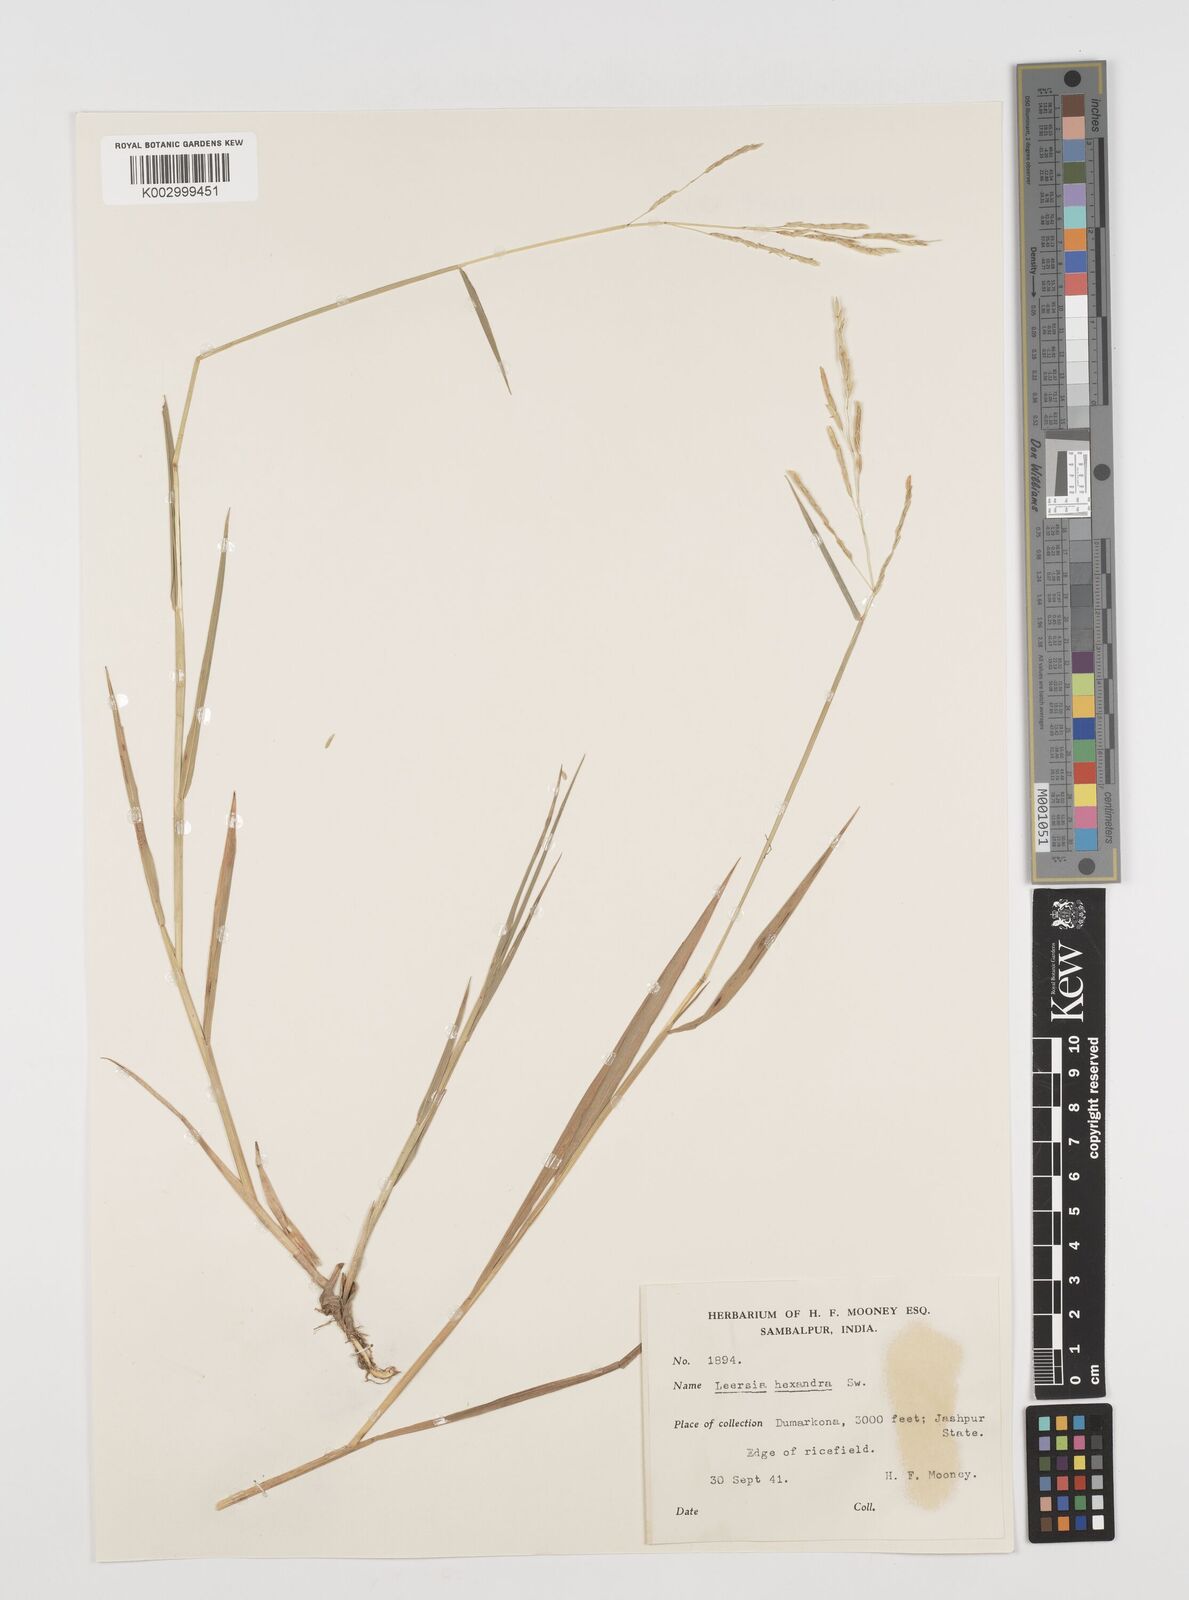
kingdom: Plantae
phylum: Tracheophyta
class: Liliopsida
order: Poales
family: Poaceae
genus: Leersia
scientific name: Leersia hexandra
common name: Southern cut grass
